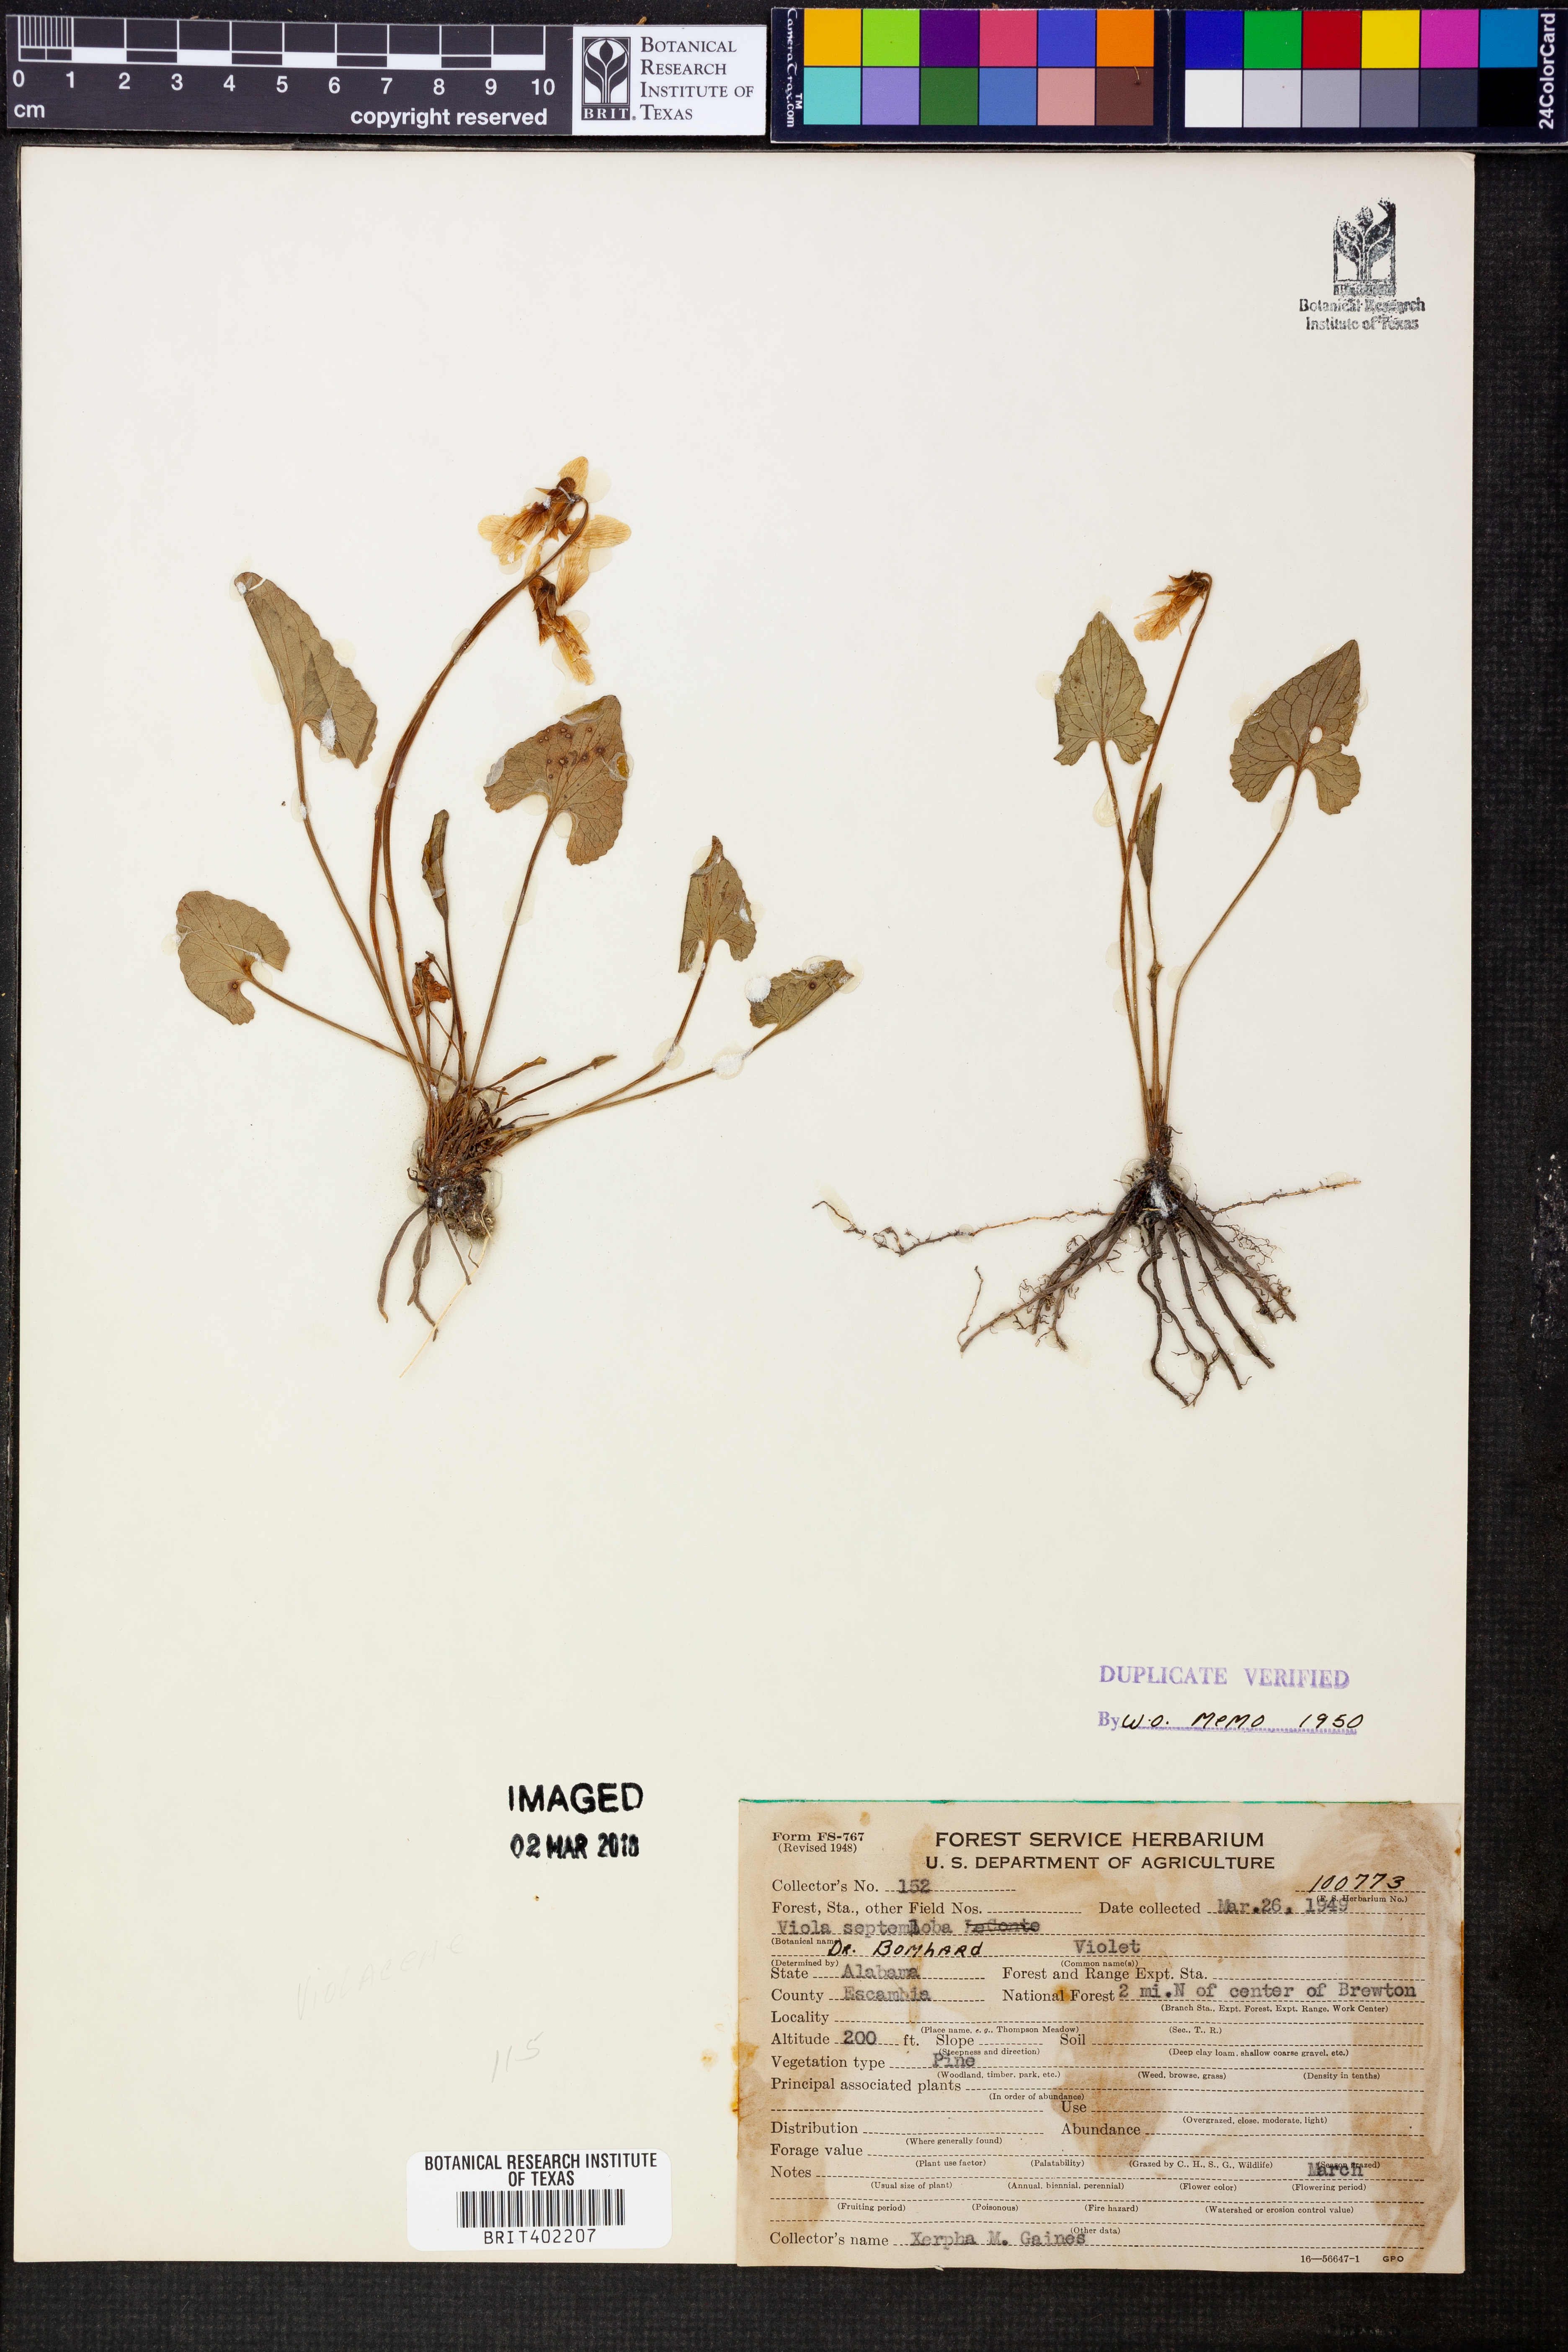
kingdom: Plantae
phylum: Tracheophyta
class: Magnoliopsida
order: Malpighiales
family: Violaceae
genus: Viola
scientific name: Viola septemloba
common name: Southern coast violet
